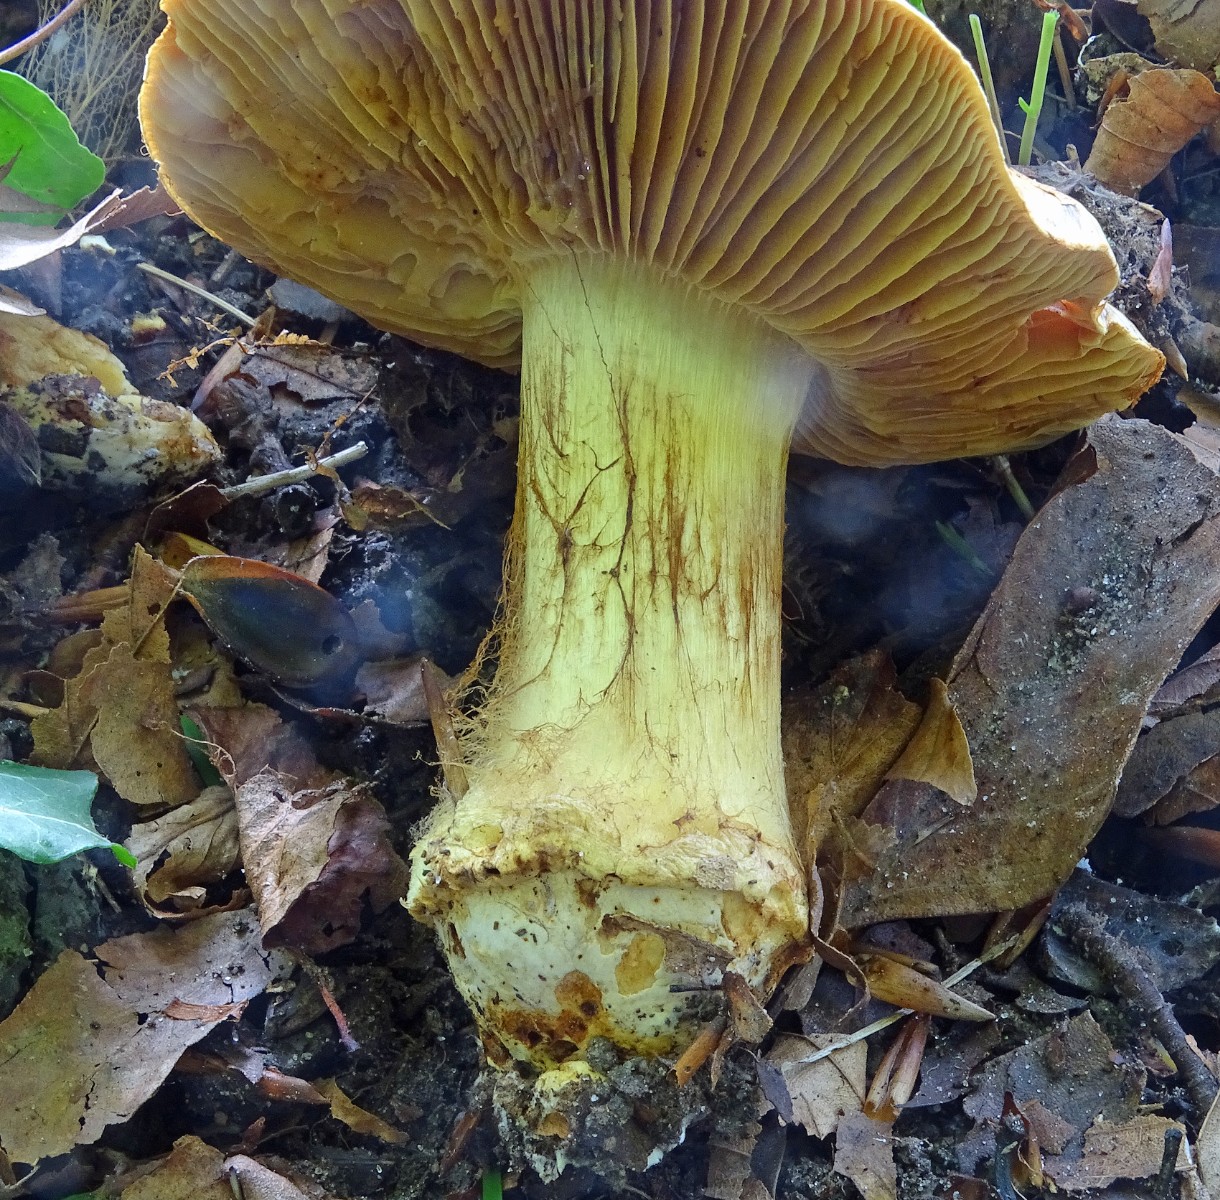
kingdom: Fungi
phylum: Basidiomycota
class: Agaricomycetes
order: Agaricales
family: Cortinariaceae
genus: Calonarius
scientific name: Calonarius xanthochlorus
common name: gulgrøn slørhat
